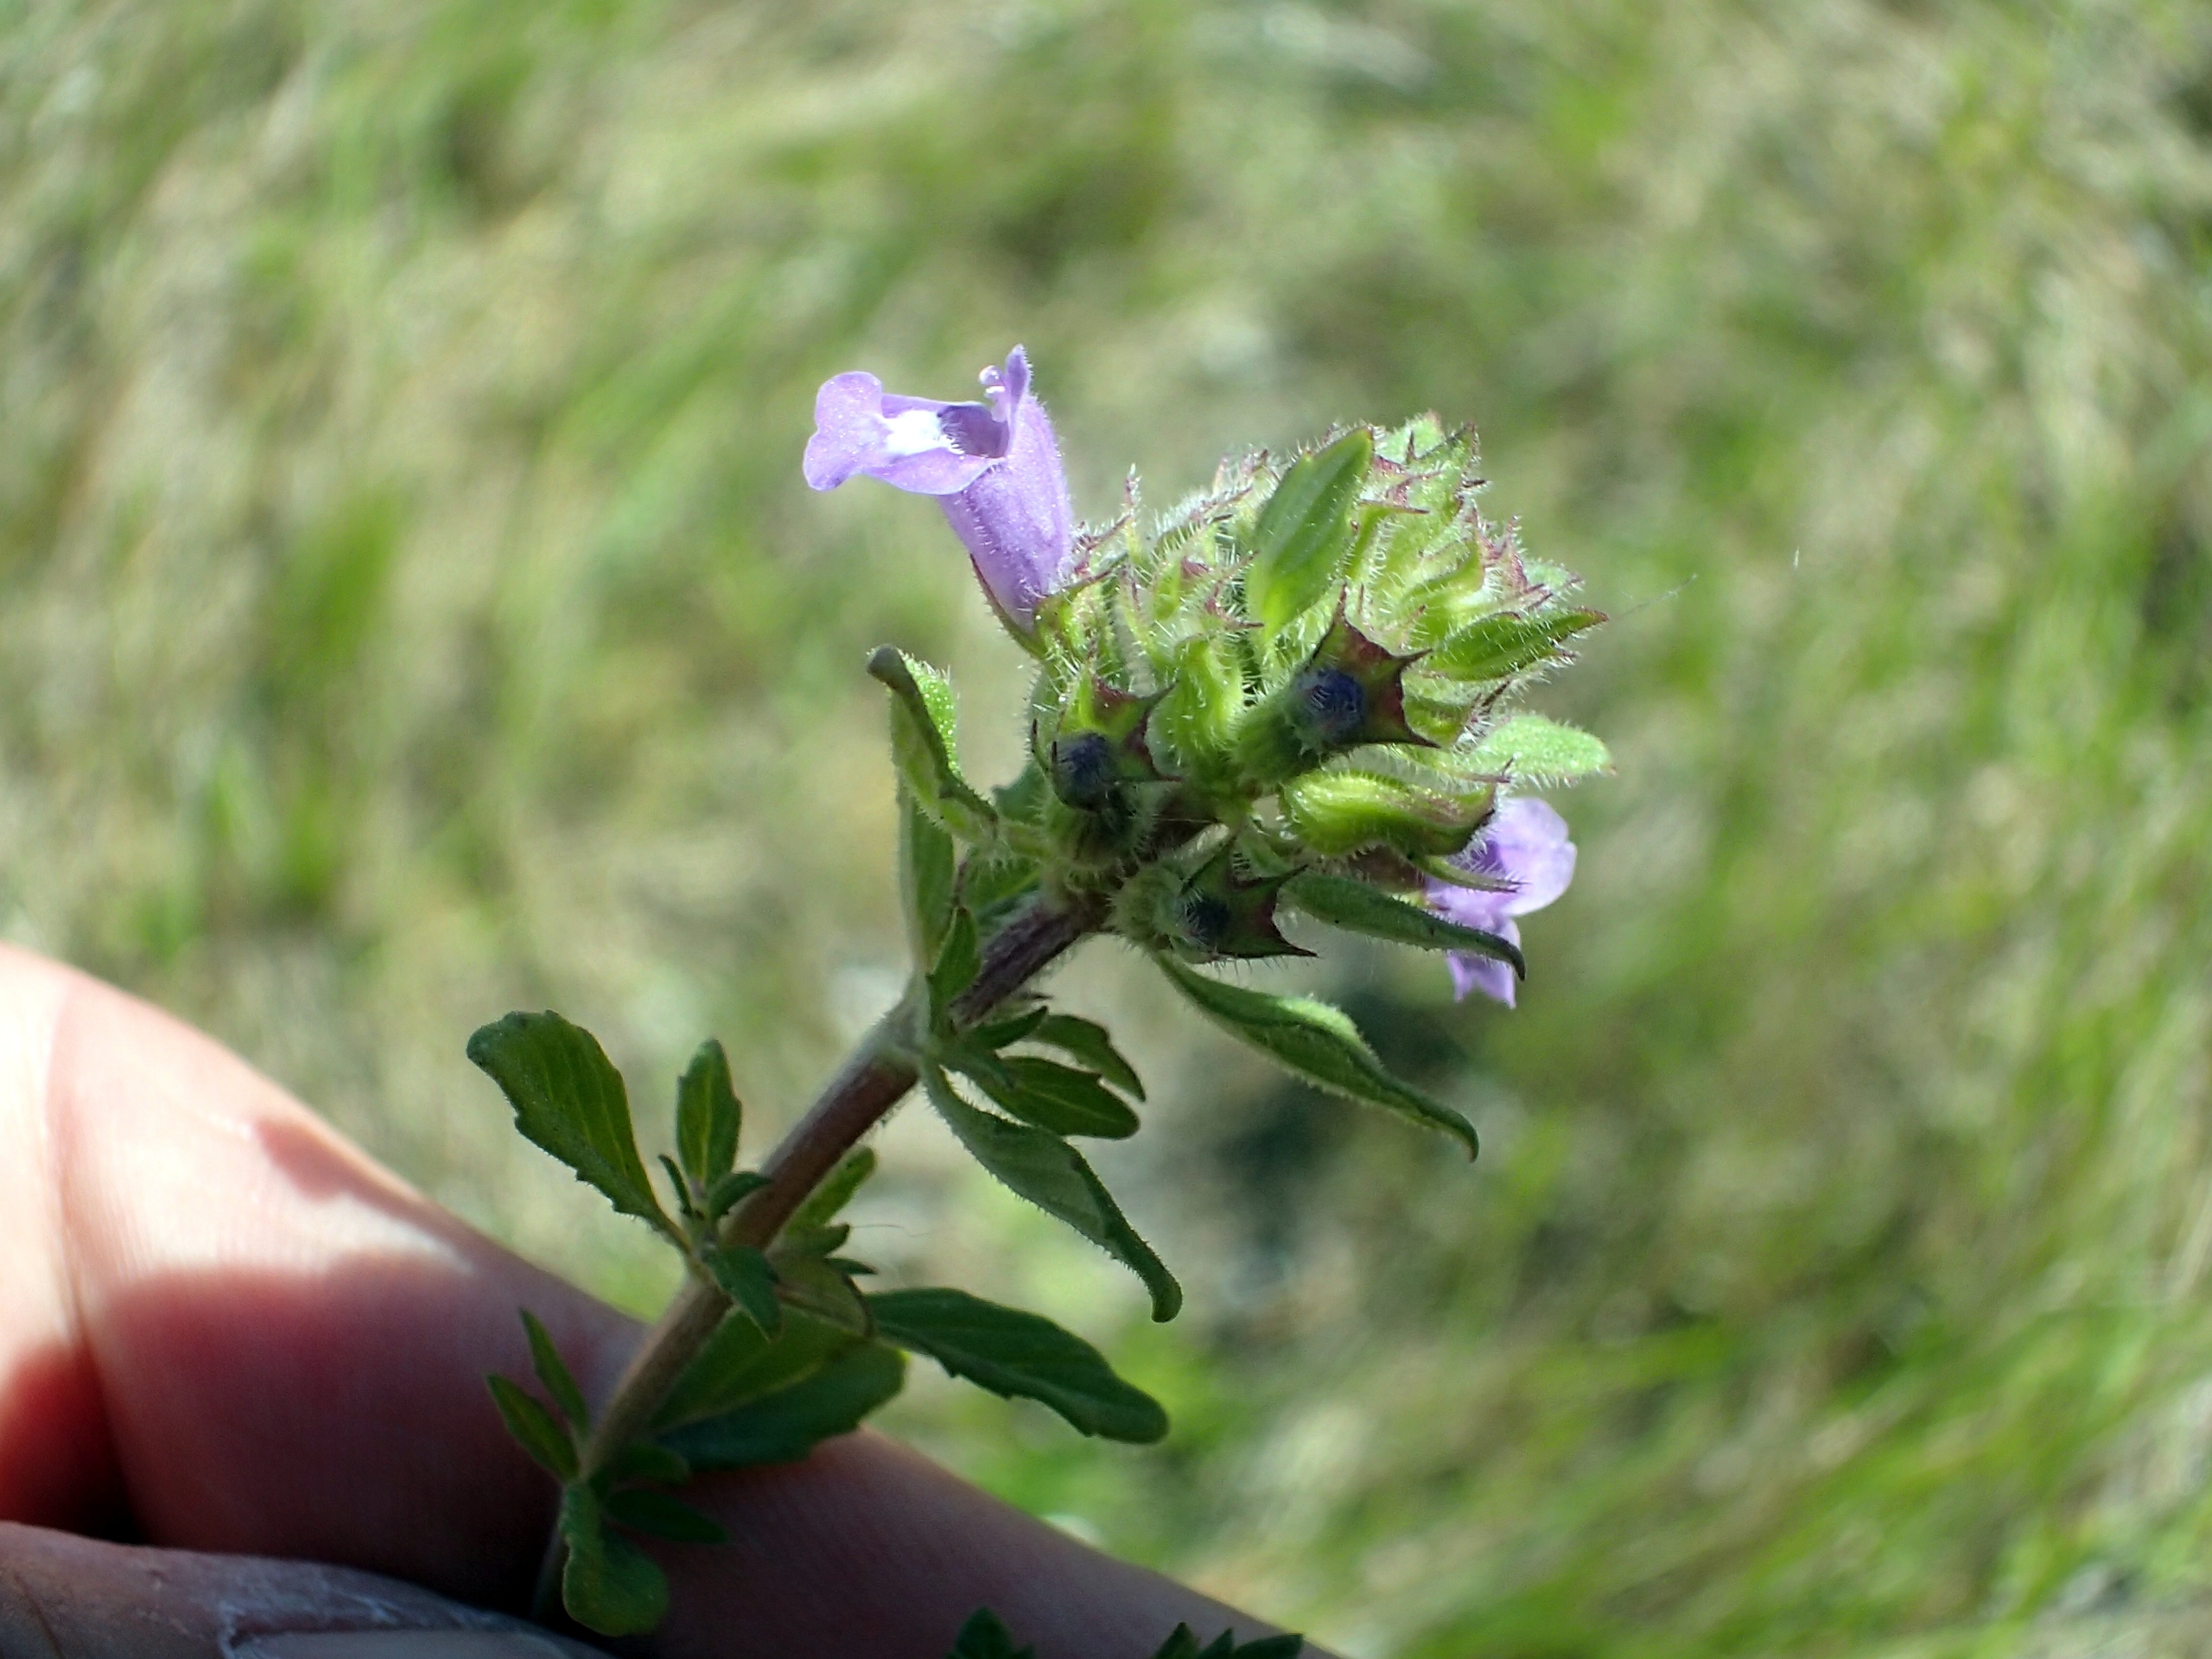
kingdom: Plantae
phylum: Tracheophyta
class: Magnoliopsida
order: Lamiales
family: Lamiaceae
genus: Clinopodium
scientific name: Clinopodium acinos
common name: Voldtimian
